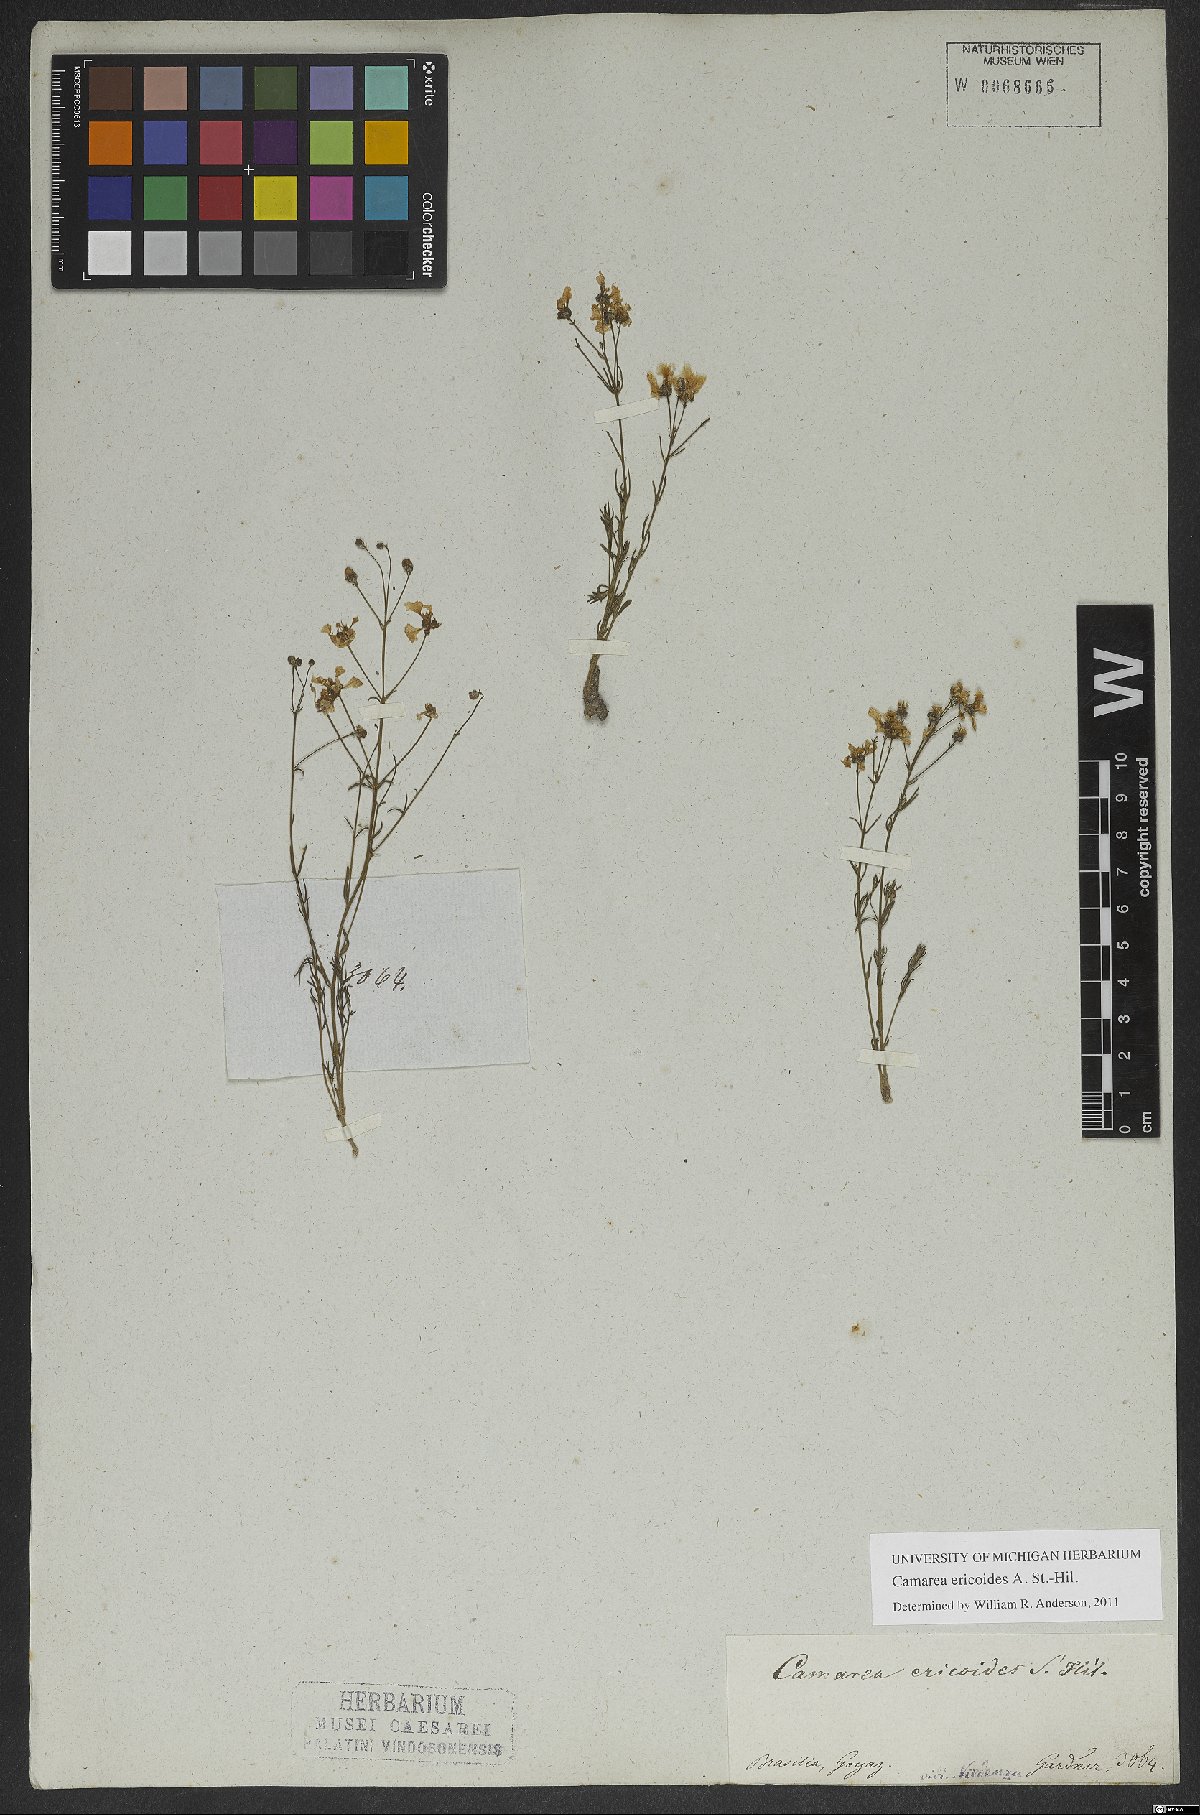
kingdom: Plantae
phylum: Tracheophyta
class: Magnoliopsida
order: Malpighiales
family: Malpighiaceae
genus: Camarea
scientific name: Camarea ericoides
